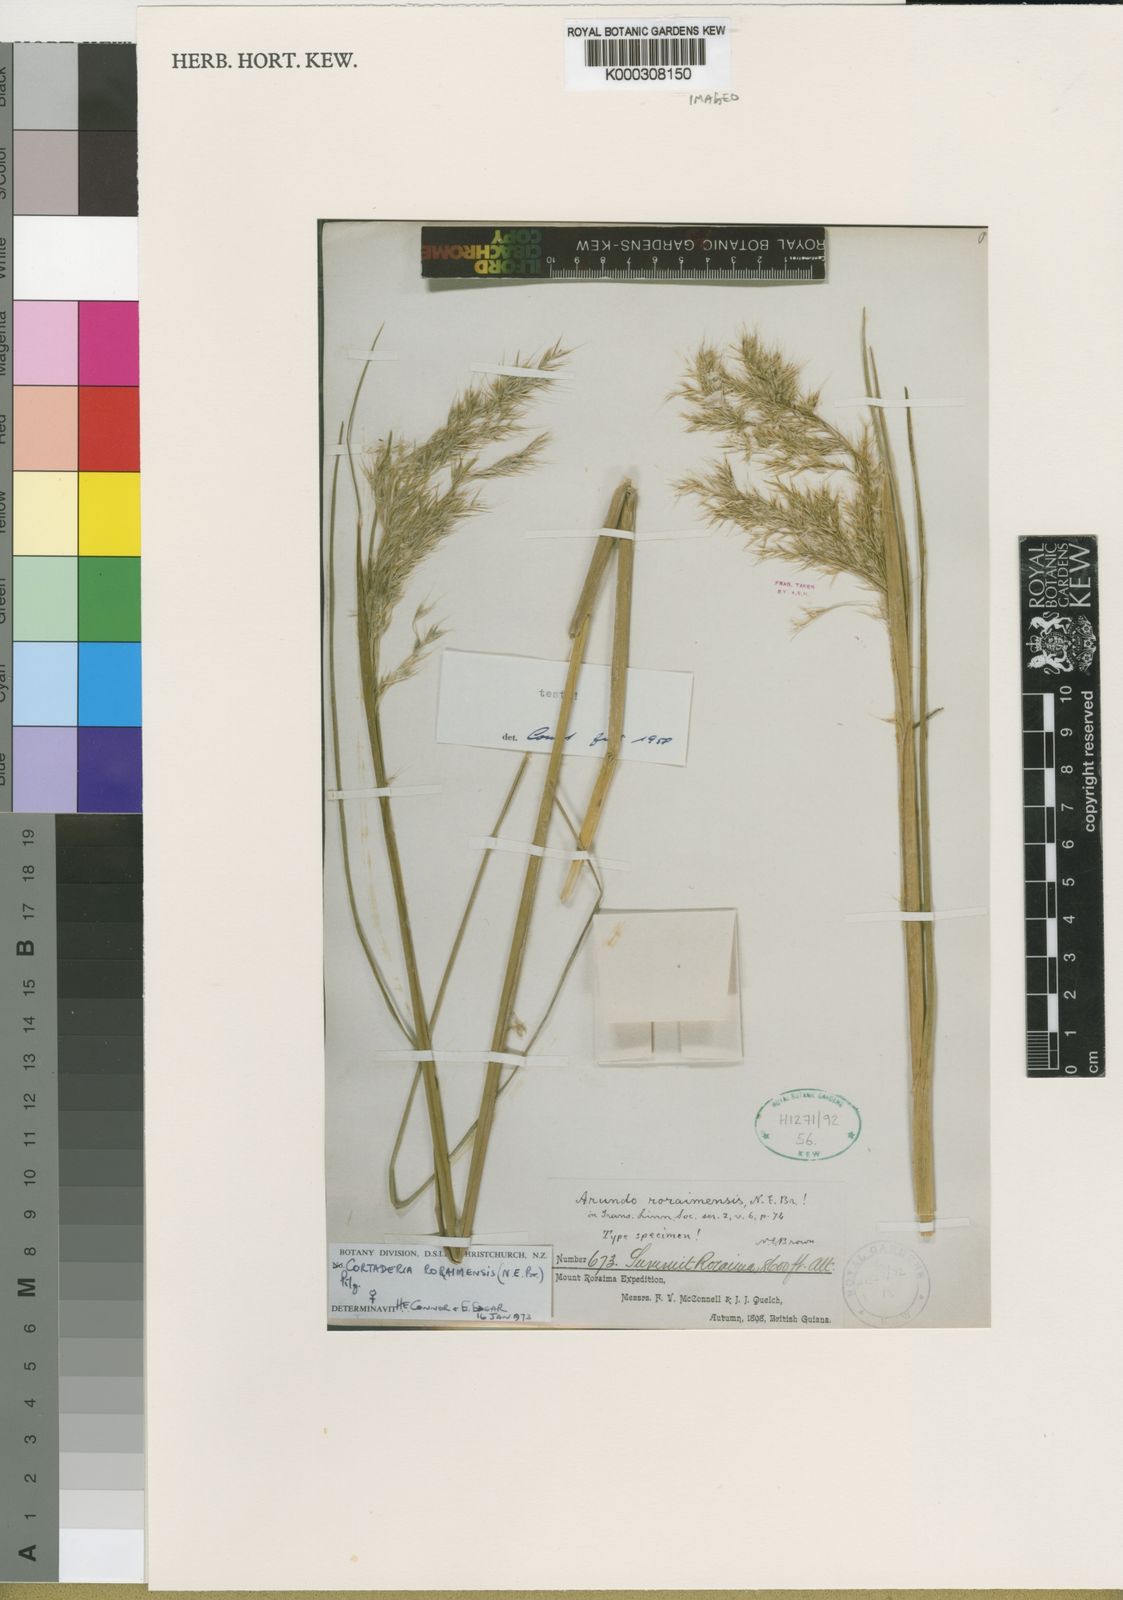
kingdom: Plantae
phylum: Tracheophyta
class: Liliopsida
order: Poales
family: Poaceae
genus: Cortaderia
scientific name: Cortaderia roraimensis
